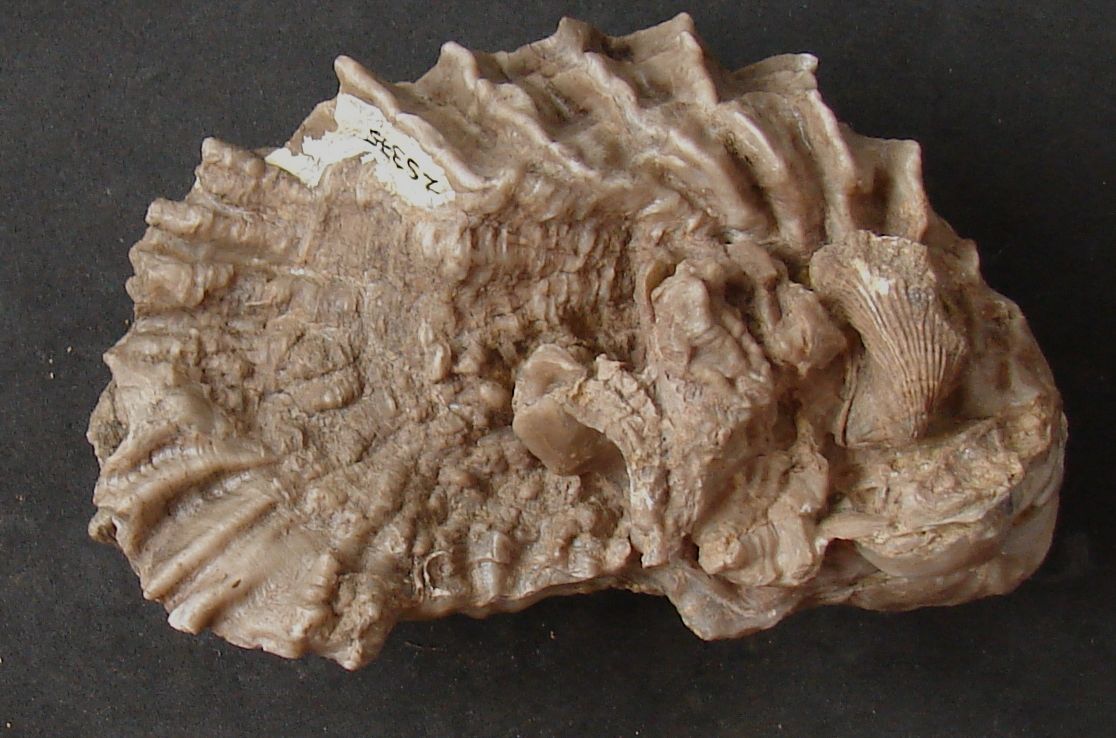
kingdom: Animalia
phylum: Mollusca
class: Bivalvia
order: Ostreida
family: Ostreidae
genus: Ostrea
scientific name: Ostrea marshii
